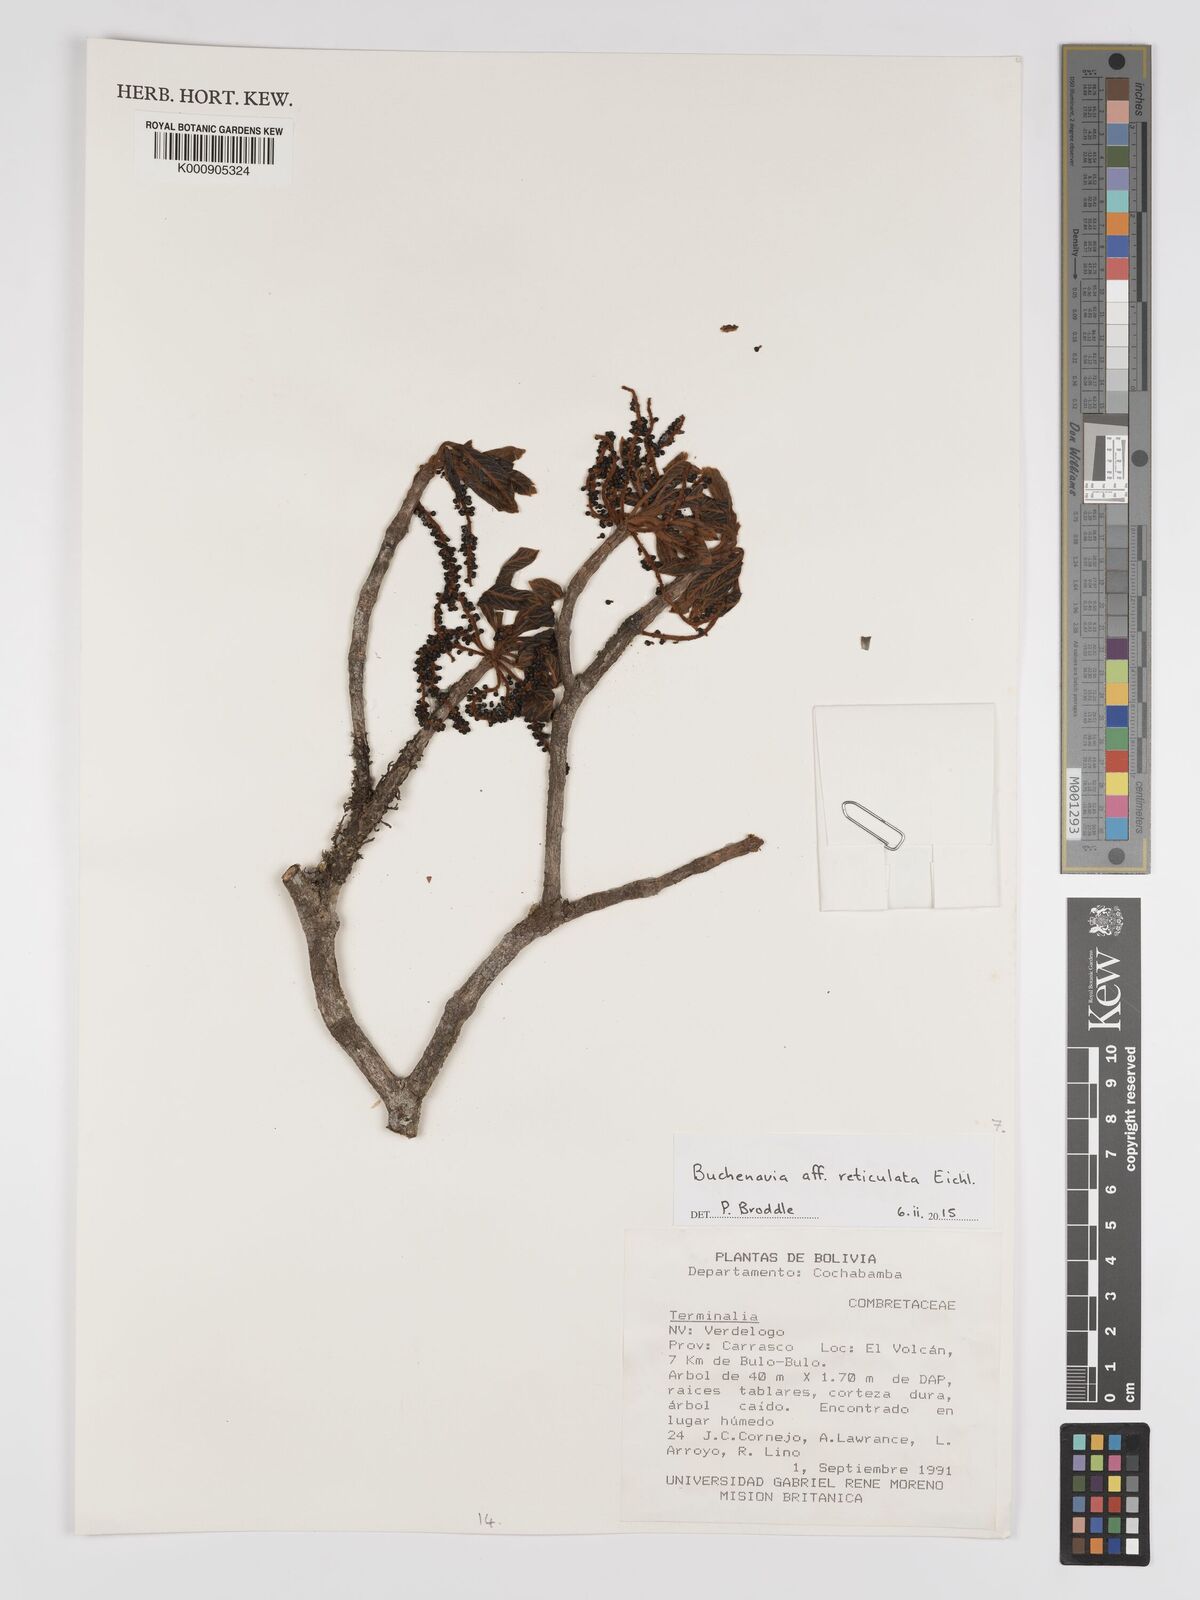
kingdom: Plantae
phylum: Tracheophyta
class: Magnoliopsida
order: Myrtales
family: Combretaceae
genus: Terminalia
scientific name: Terminalia pulcherrima
